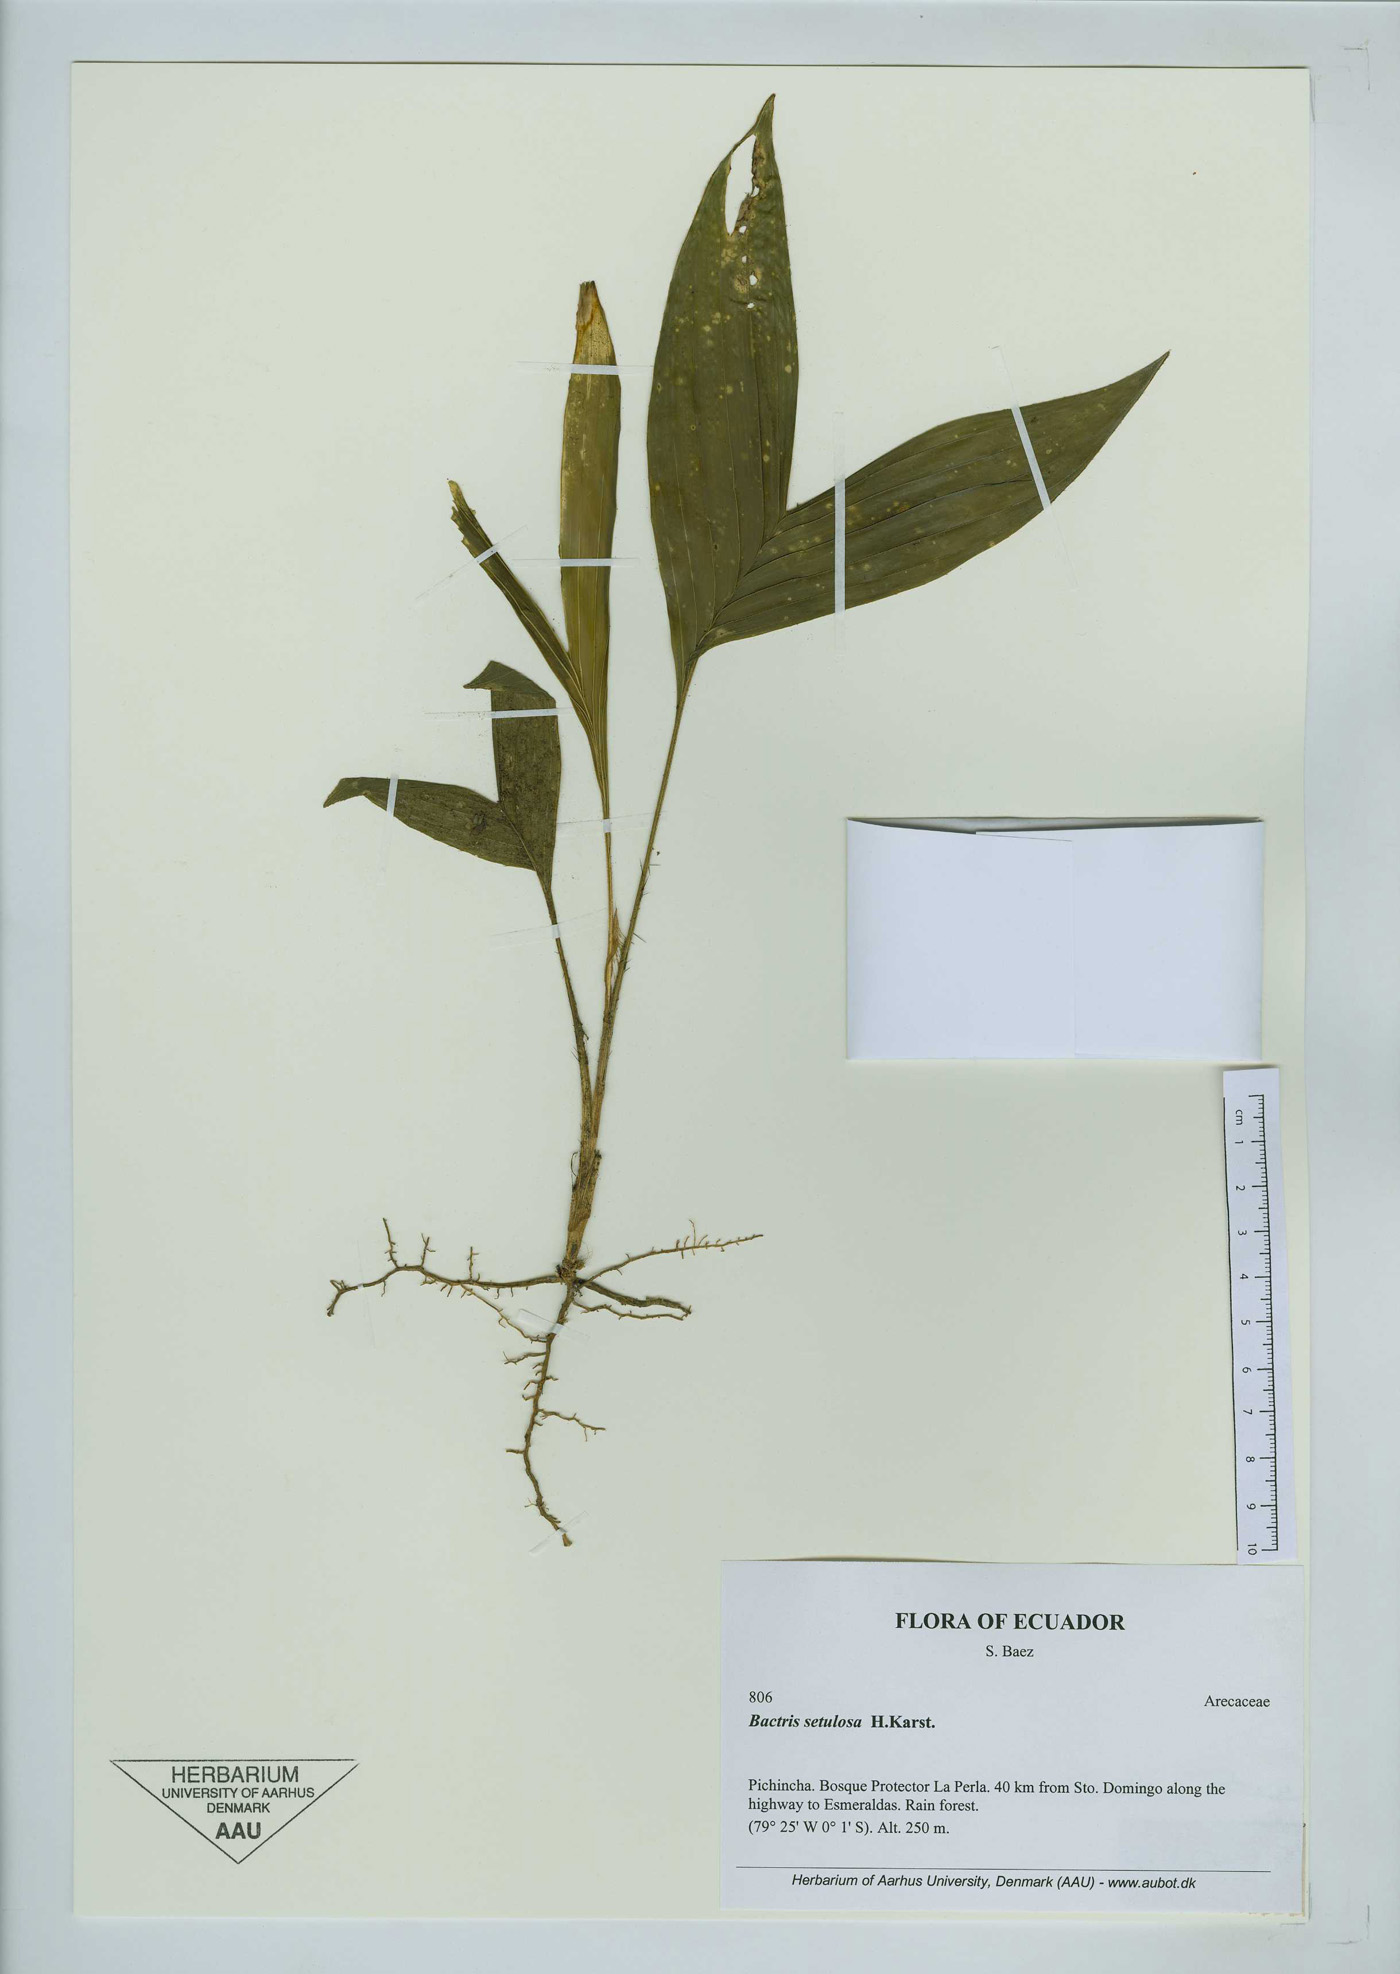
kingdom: Plantae
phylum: Tracheophyta
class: Liliopsida
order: Arecales
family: Arecaceae
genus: Bactris
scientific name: Bactris setulosa
